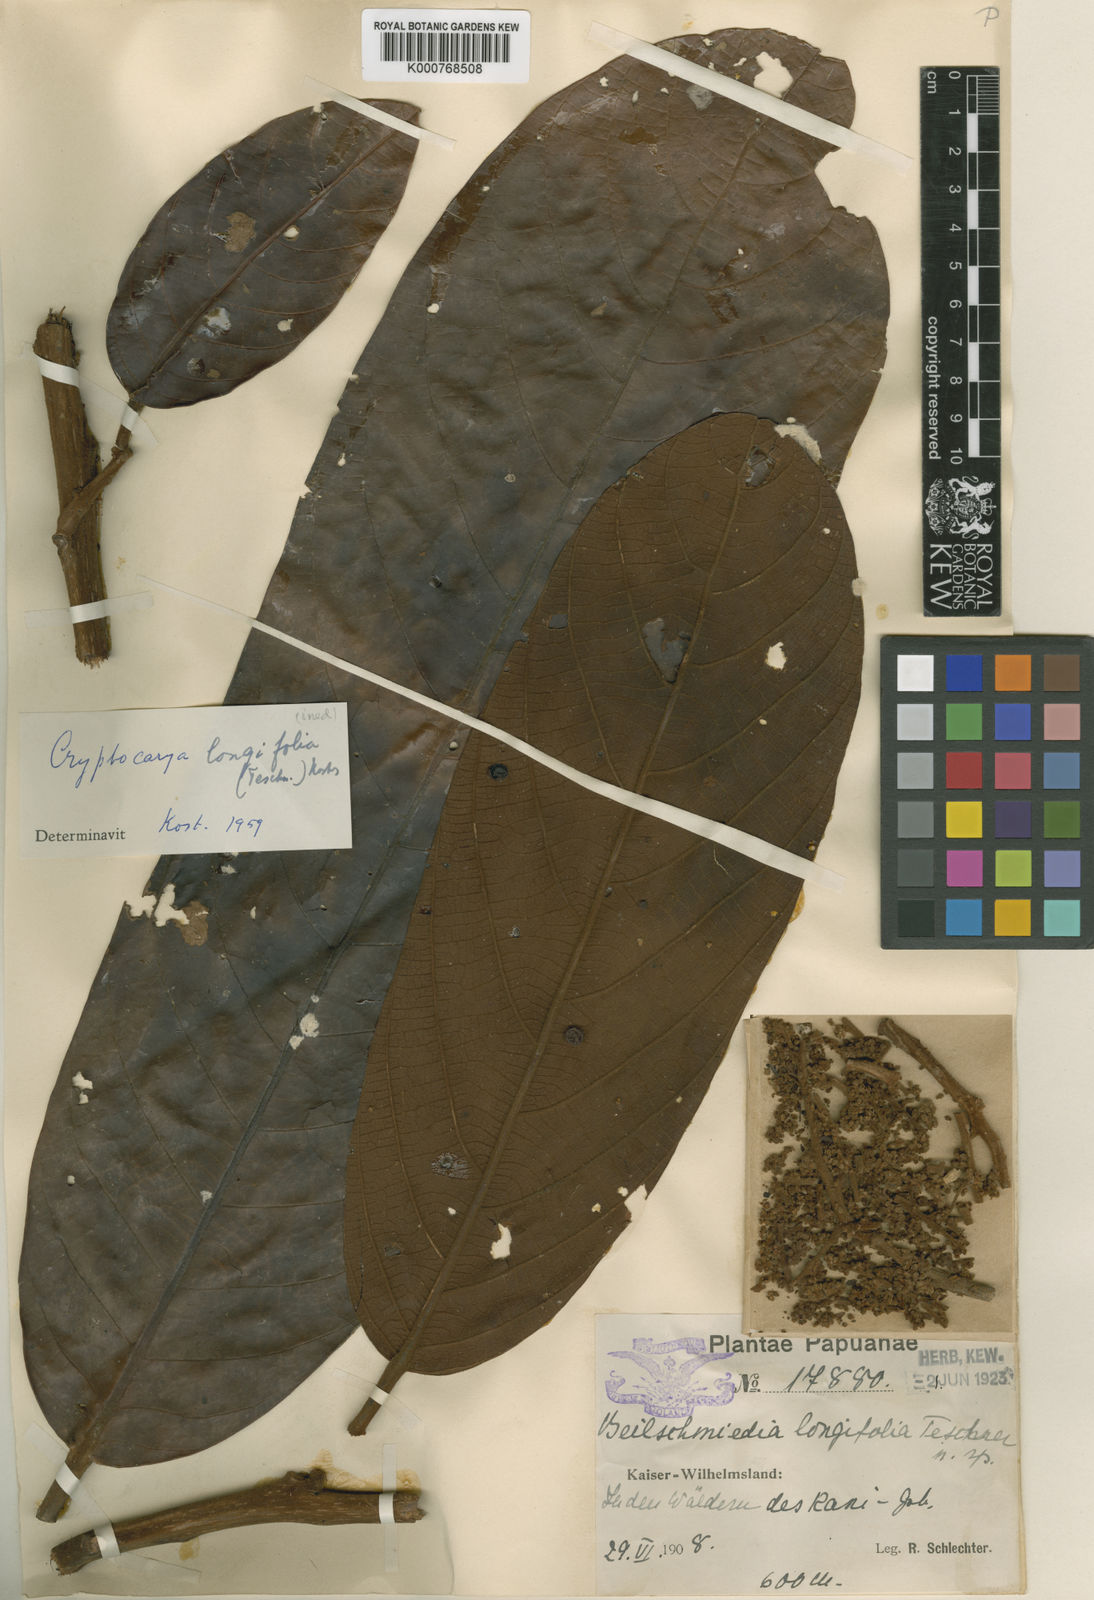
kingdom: Plantae
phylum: Tracheophyta
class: Magnoliopsida
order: Laurales
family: Lauraceae
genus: Cryptocarya
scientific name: Cryptocarya longifolia
